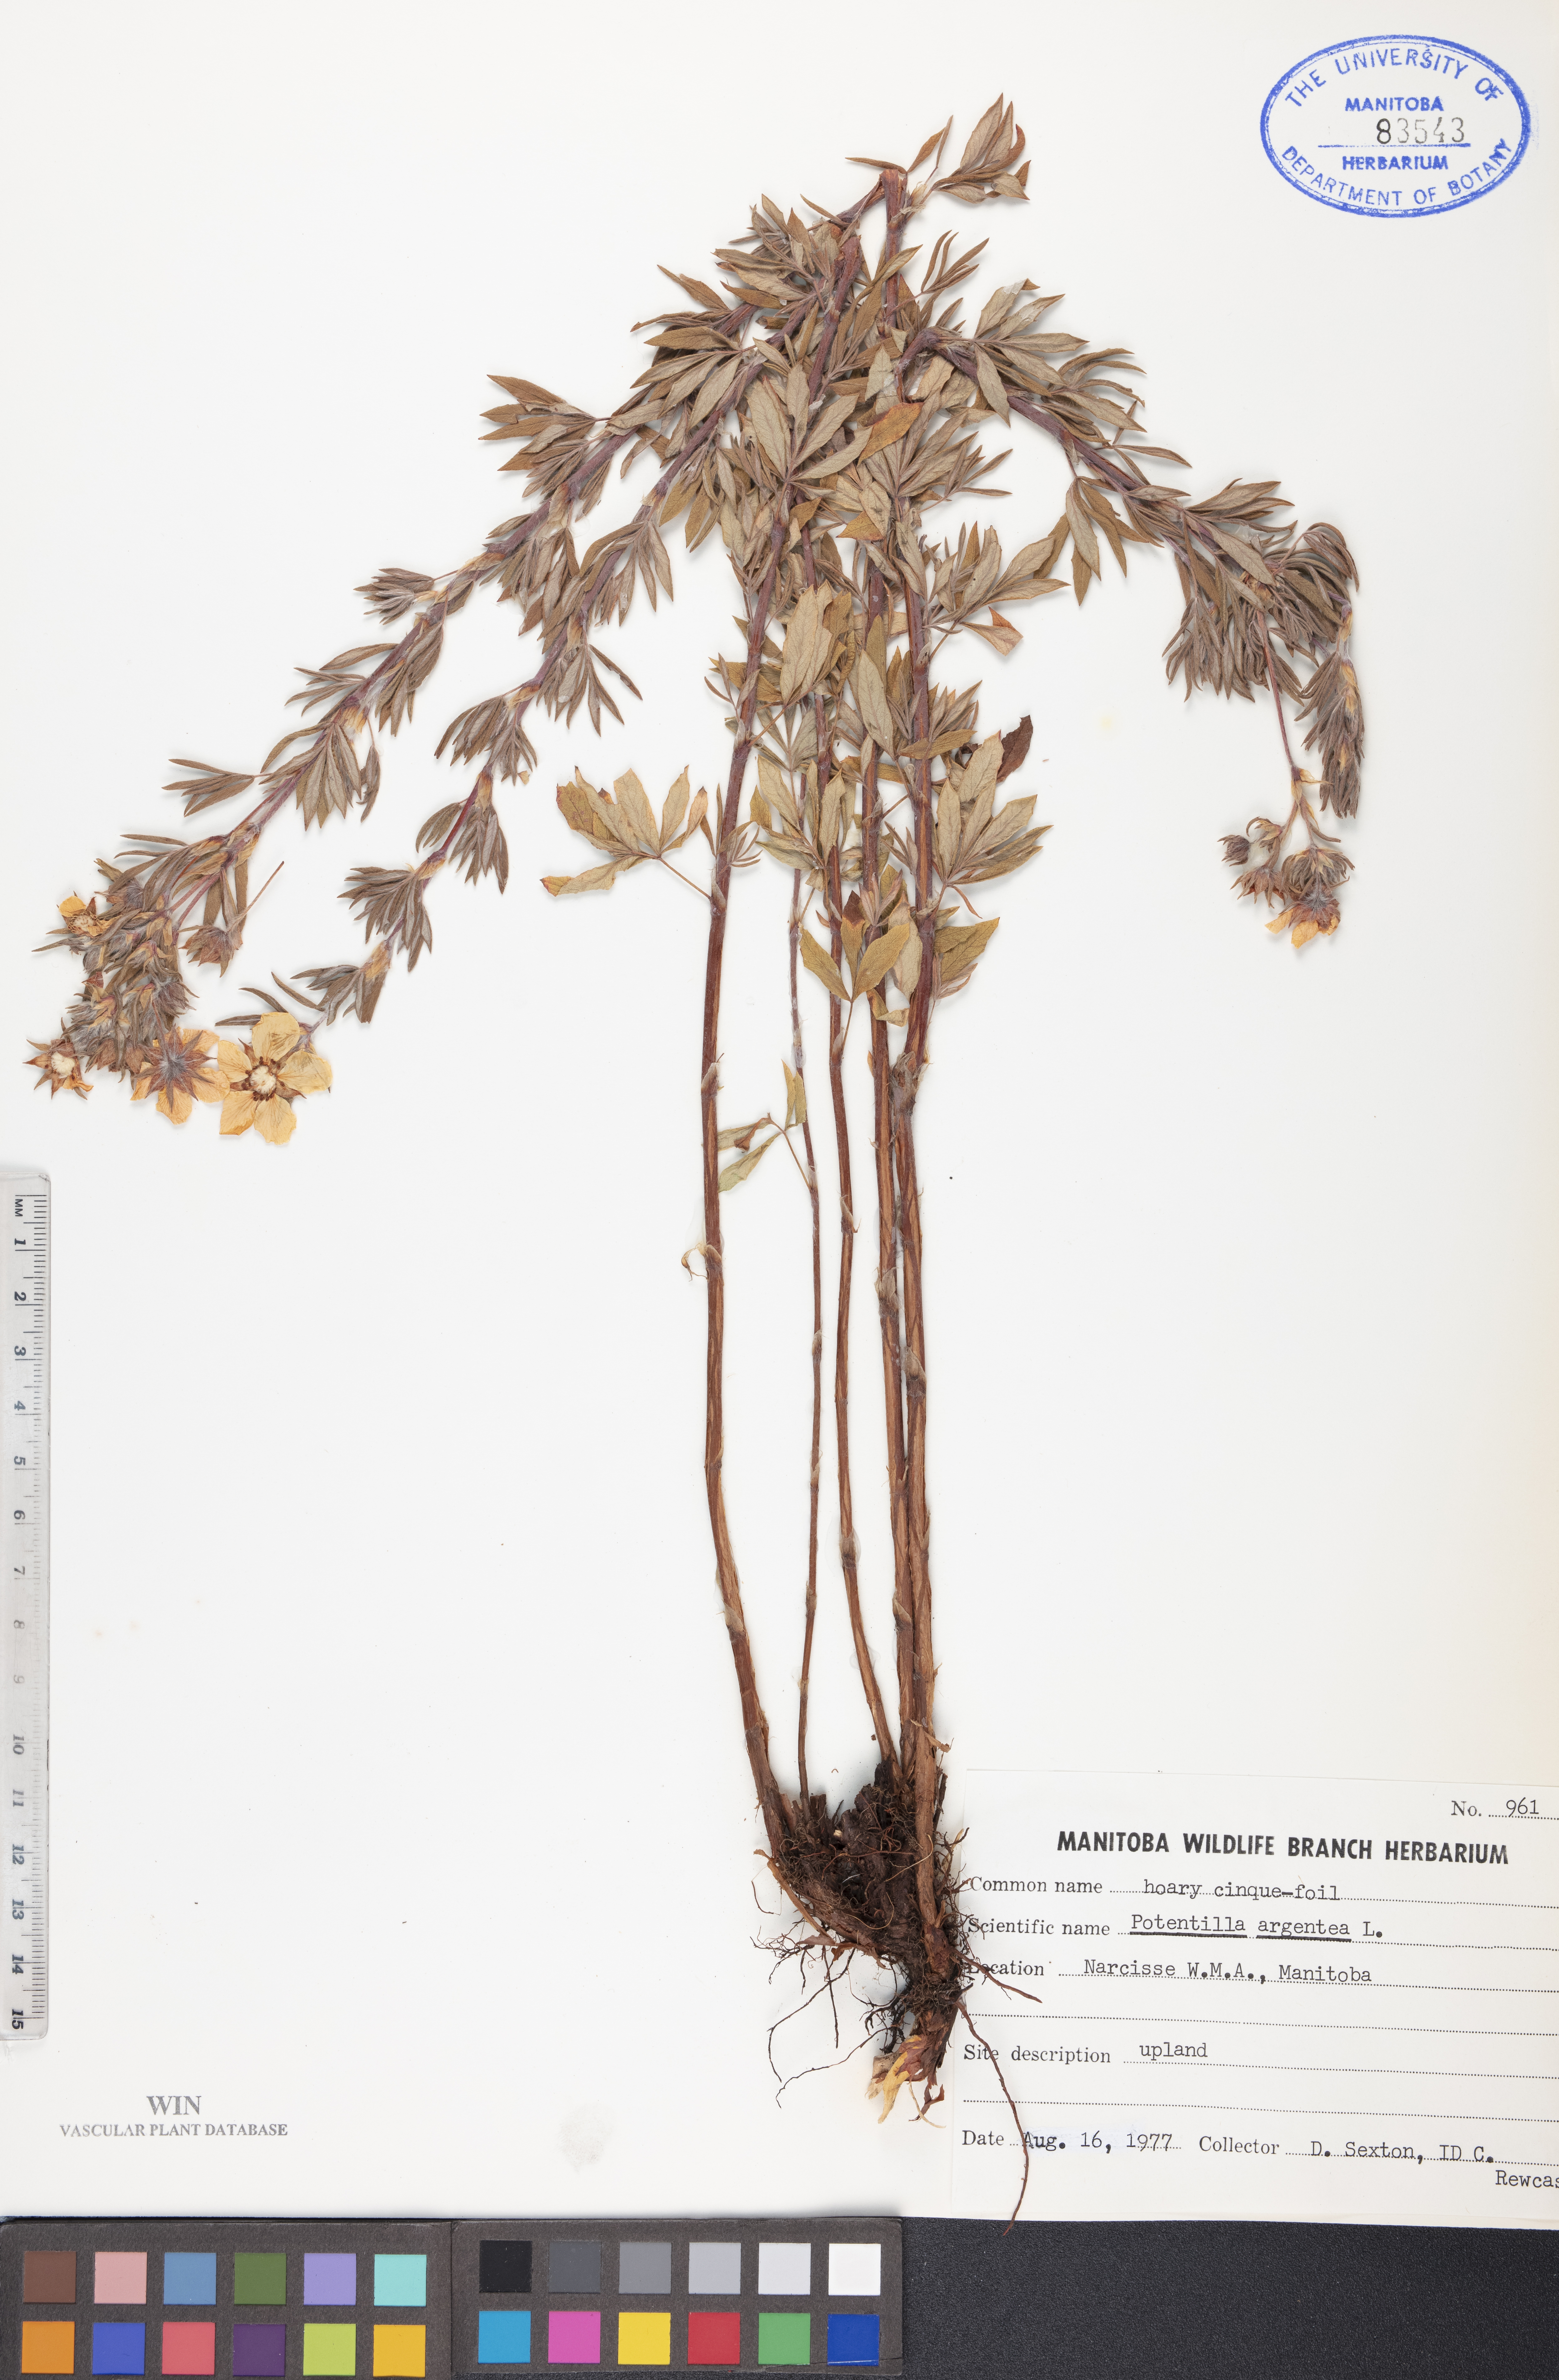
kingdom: Plantae
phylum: Tracheophyta
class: Magnoliopsida
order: Rosales
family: Rosaceae
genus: Potentilla
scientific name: Potentilla argentea
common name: Hoary cinquefoil
